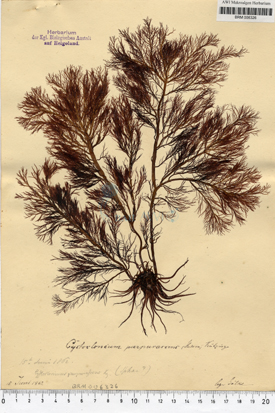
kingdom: Plantae
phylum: Rhodophyta
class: Florideophyceae
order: Gigartinales
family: Cystocloniaceae
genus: Cystoclonium
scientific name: Cystoclonium purpureum
